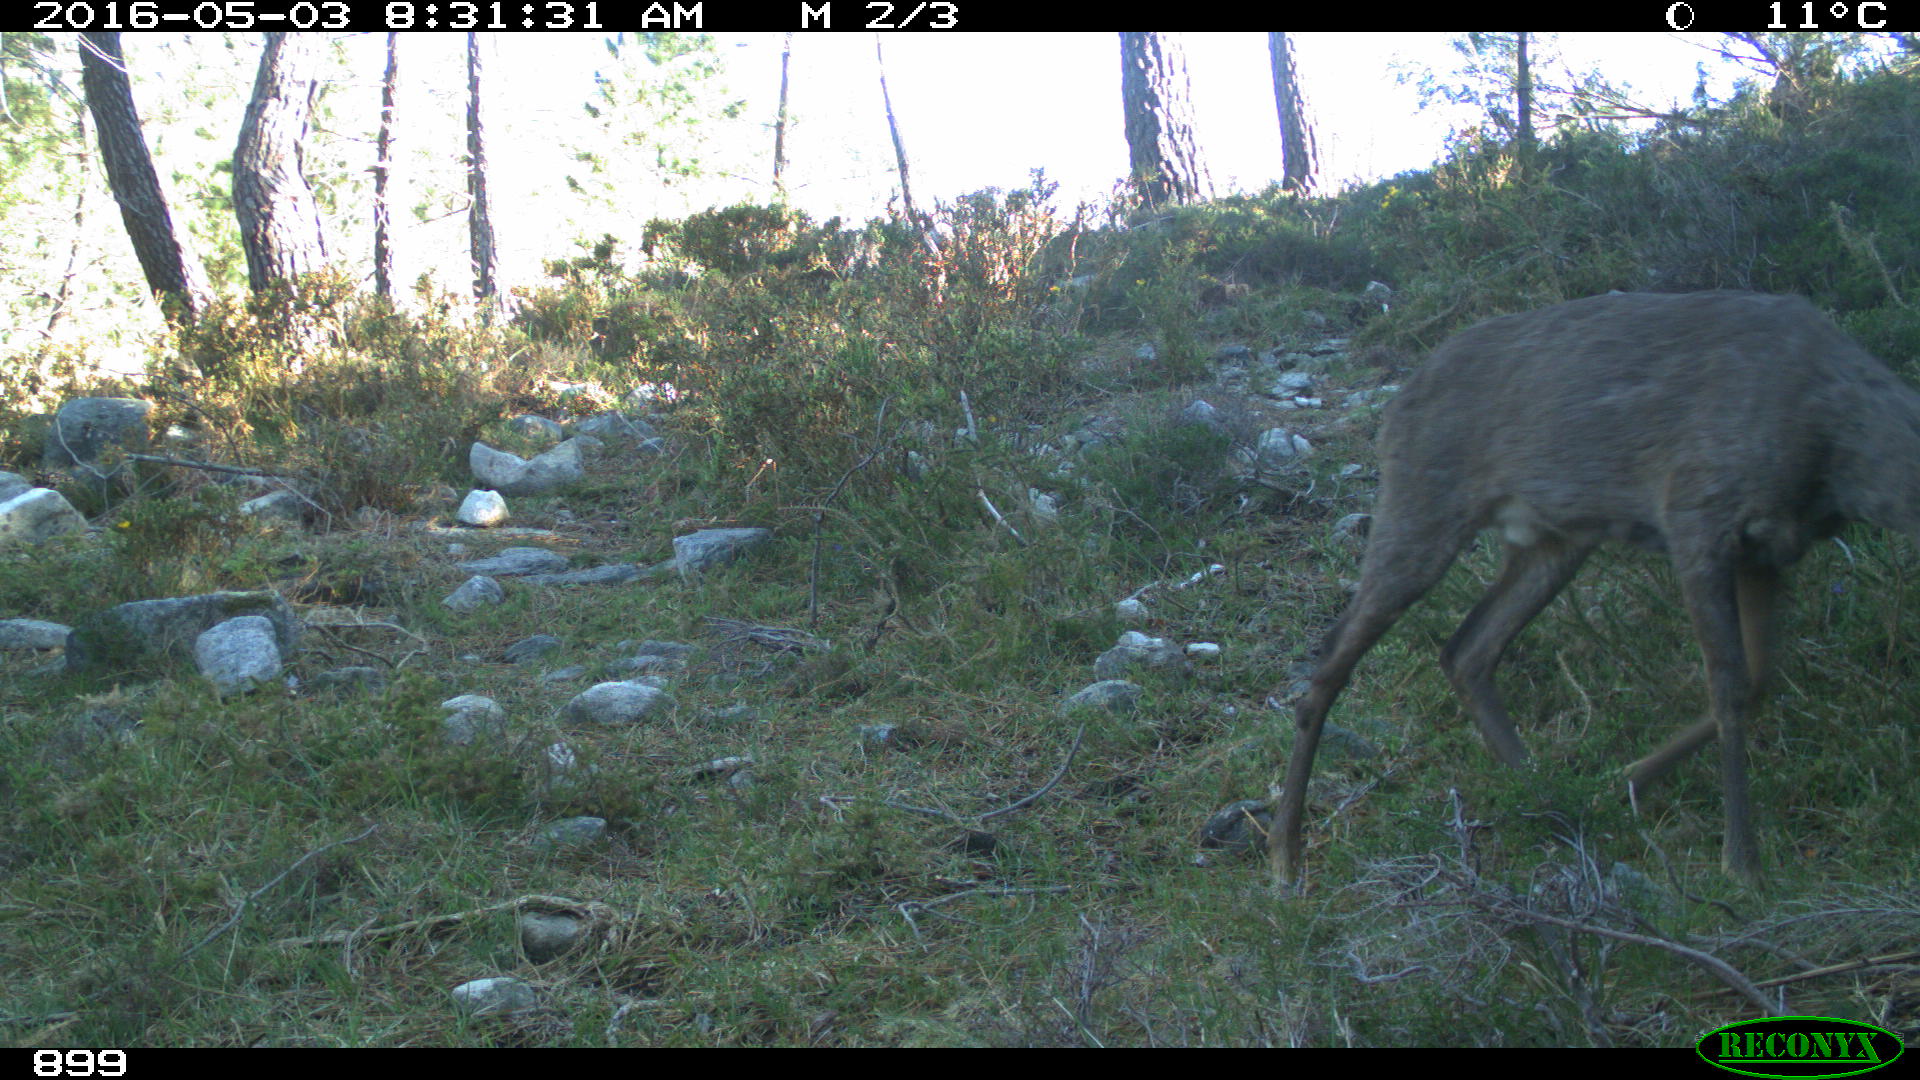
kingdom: Animalia
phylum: Chordata
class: Mammalia
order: Artiodactyla
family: Cervidae
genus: Capreolus
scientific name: Capreolus capreolus
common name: Western roe deer
